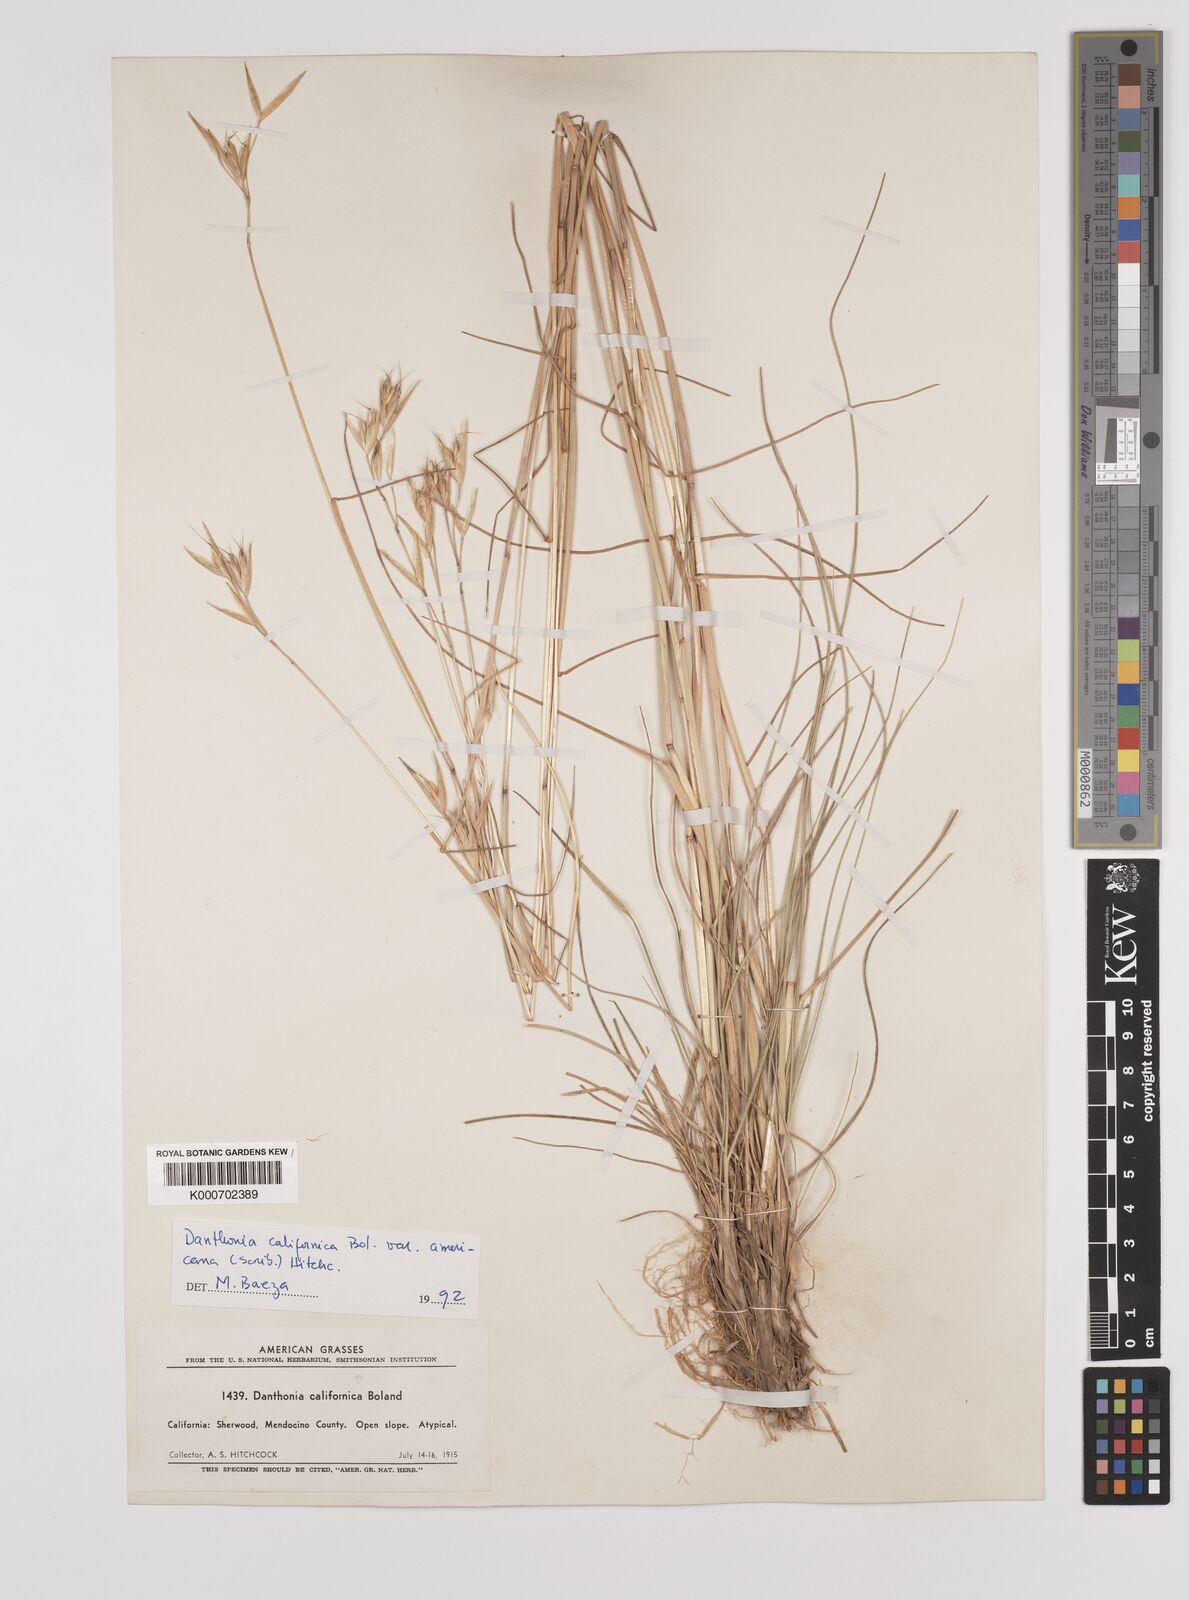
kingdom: Plantae
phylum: Tracheophyta
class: Liliopsida
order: Poales
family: Poaceae
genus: Danthonia
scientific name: Danthonia californica
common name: California oat grass
